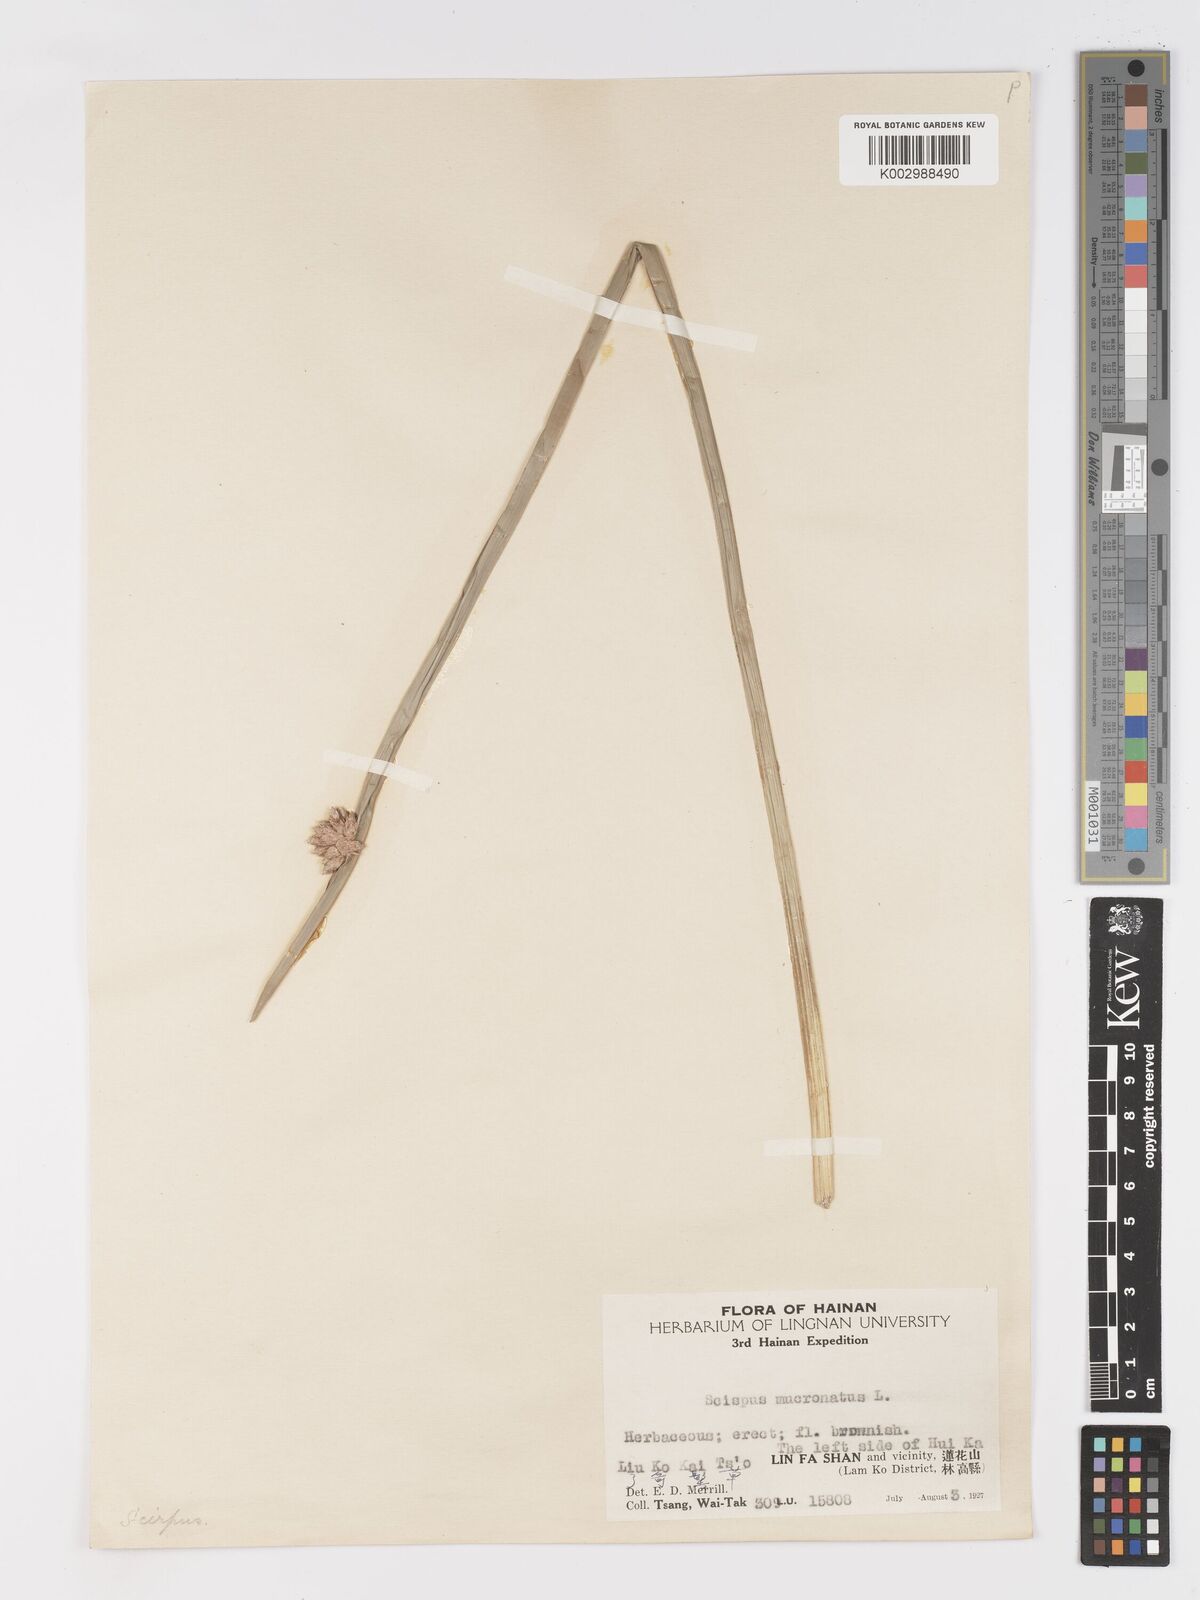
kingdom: Plantae
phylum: Tracheophyta
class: Liliopsida
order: Poales
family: Cyperaceae
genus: Schoenoplectiella
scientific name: Schoenoplectiella mucronata
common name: Bog bulrush
